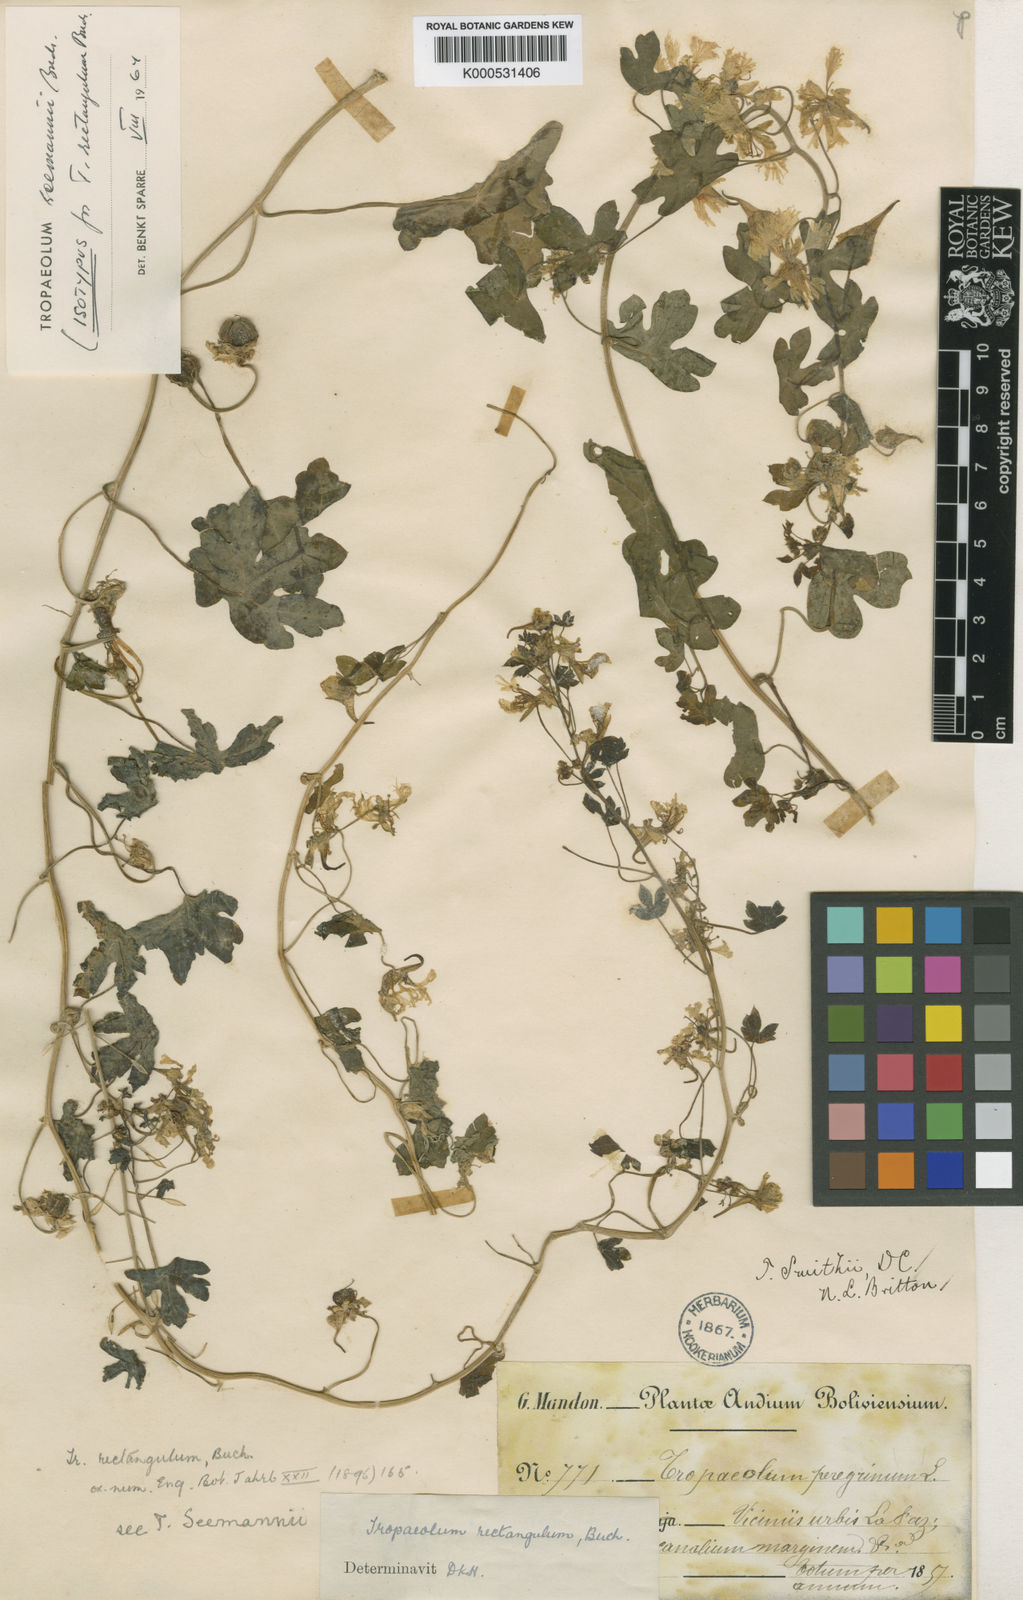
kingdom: Plantae
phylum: Tracheophyta
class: Magnoliopsida
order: Brassicales
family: Tropaeolaceae
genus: Tropaeolum
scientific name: Tropaeolum seemannii
